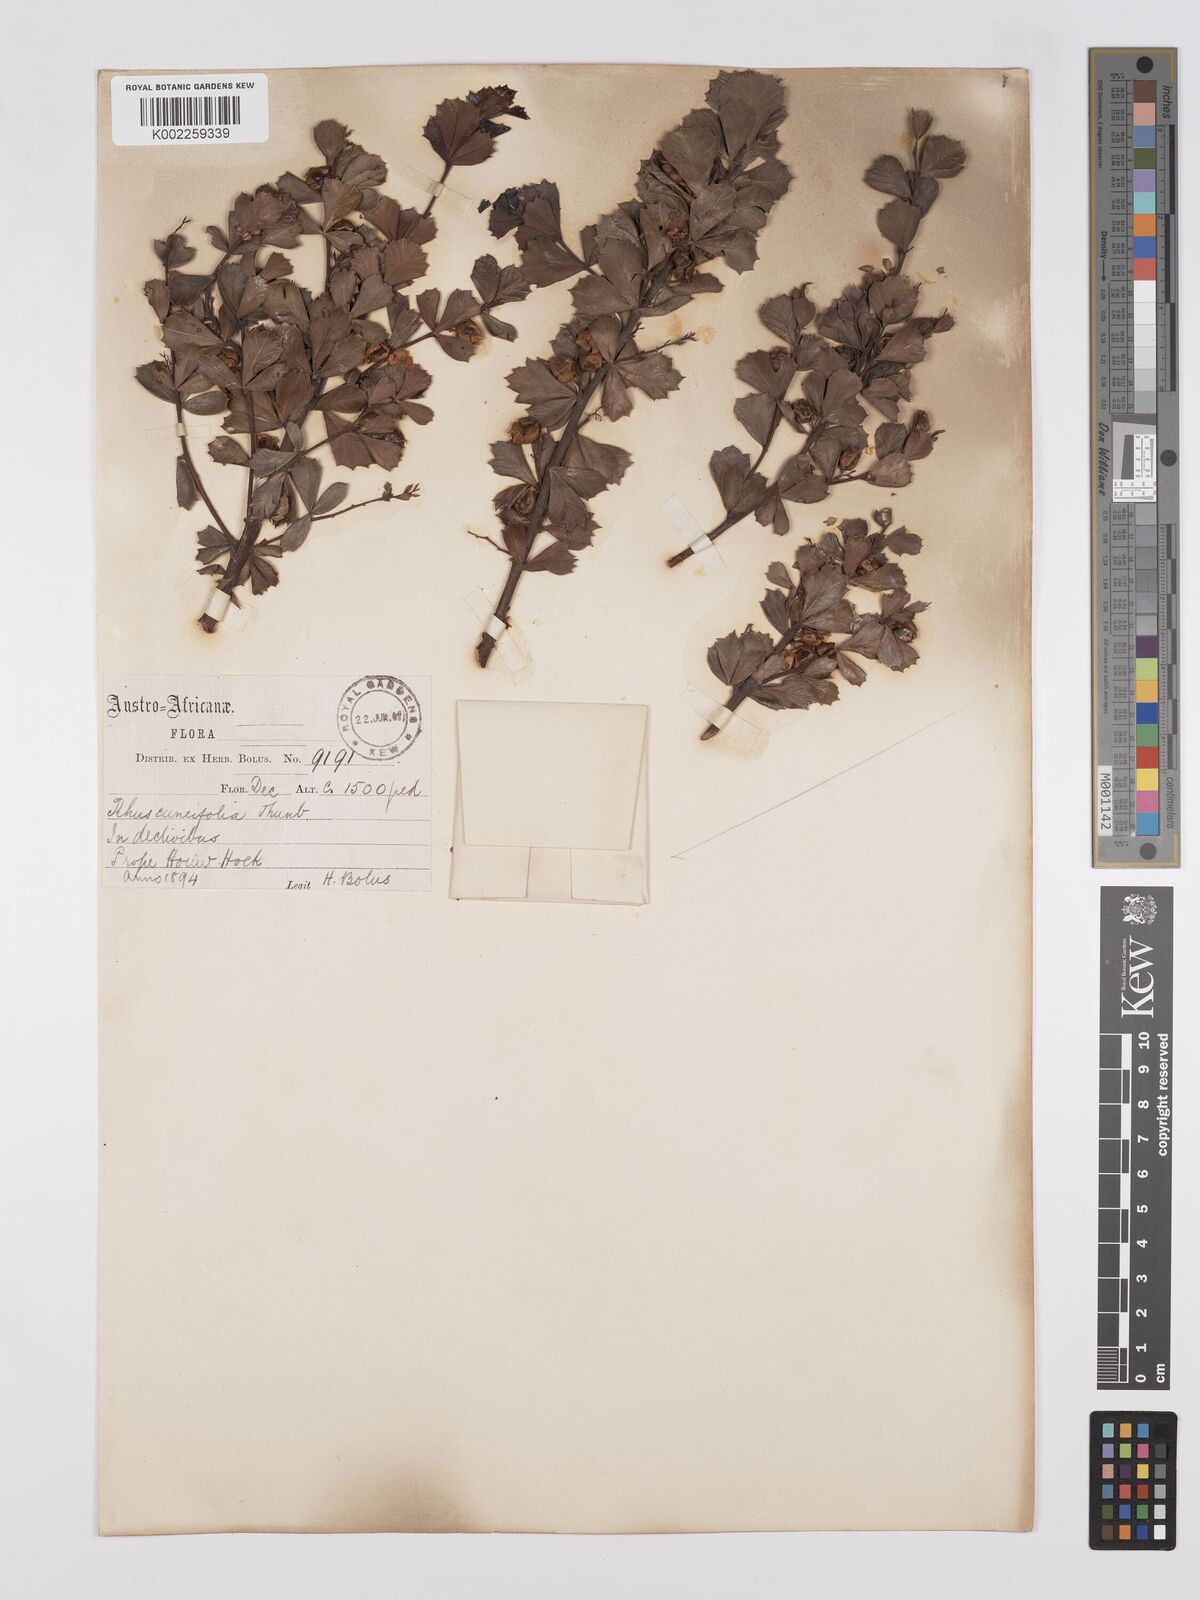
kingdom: Plantae
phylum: Tracheophyta
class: Magnoliopsida
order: Sapindales
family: Anacardiaceae
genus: Searsia
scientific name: Searsia cuneifolia
